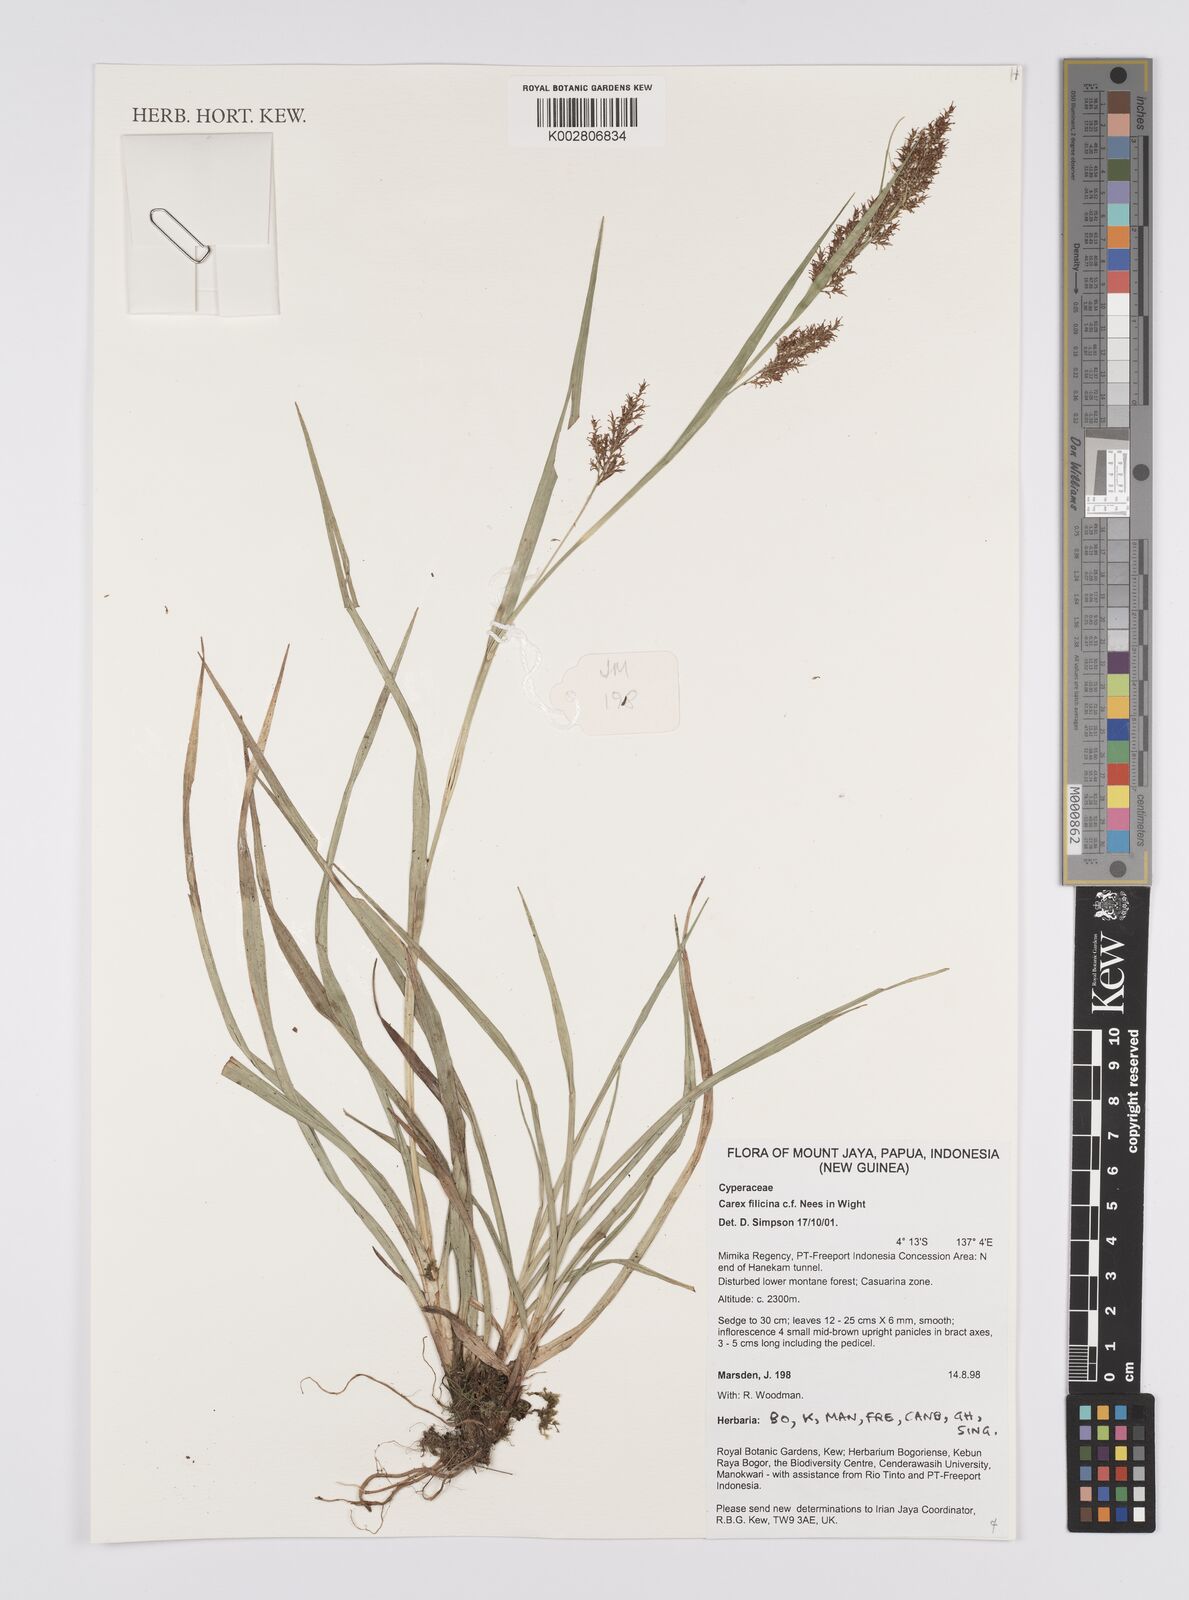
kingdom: Plantae
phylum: Tracheophyta
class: Liliopsida
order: Poales
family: Cyperaceae
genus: Carex
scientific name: Carex filicina
